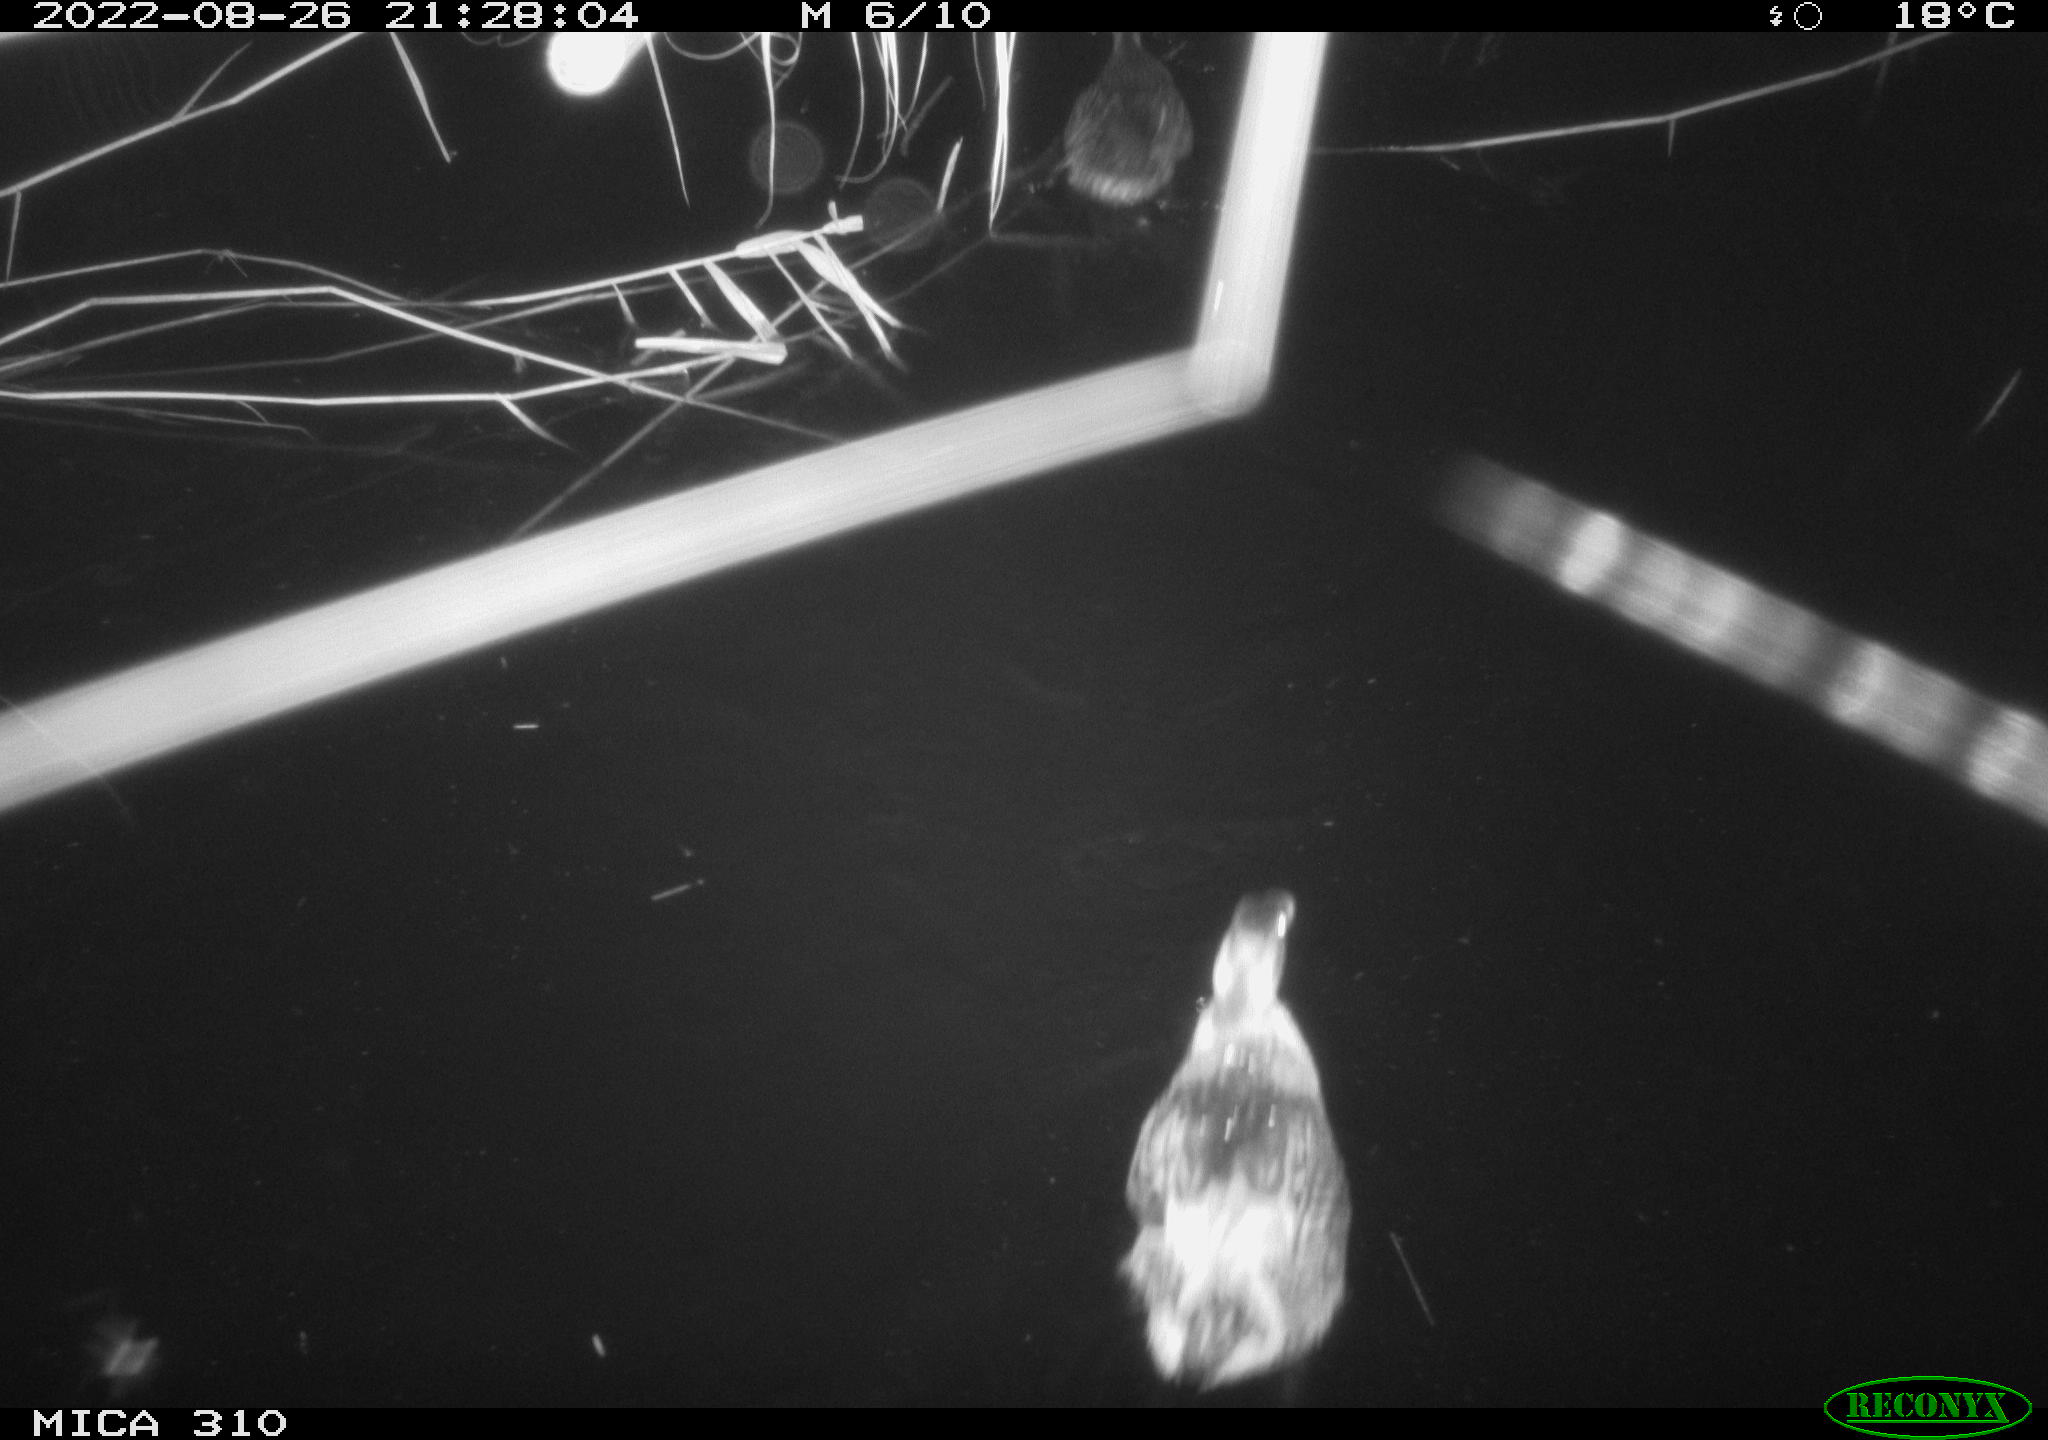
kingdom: Animalia
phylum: Chordata
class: Aves
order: Pelecaniformes
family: Ardeidae
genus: Ardea
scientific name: Ardea
